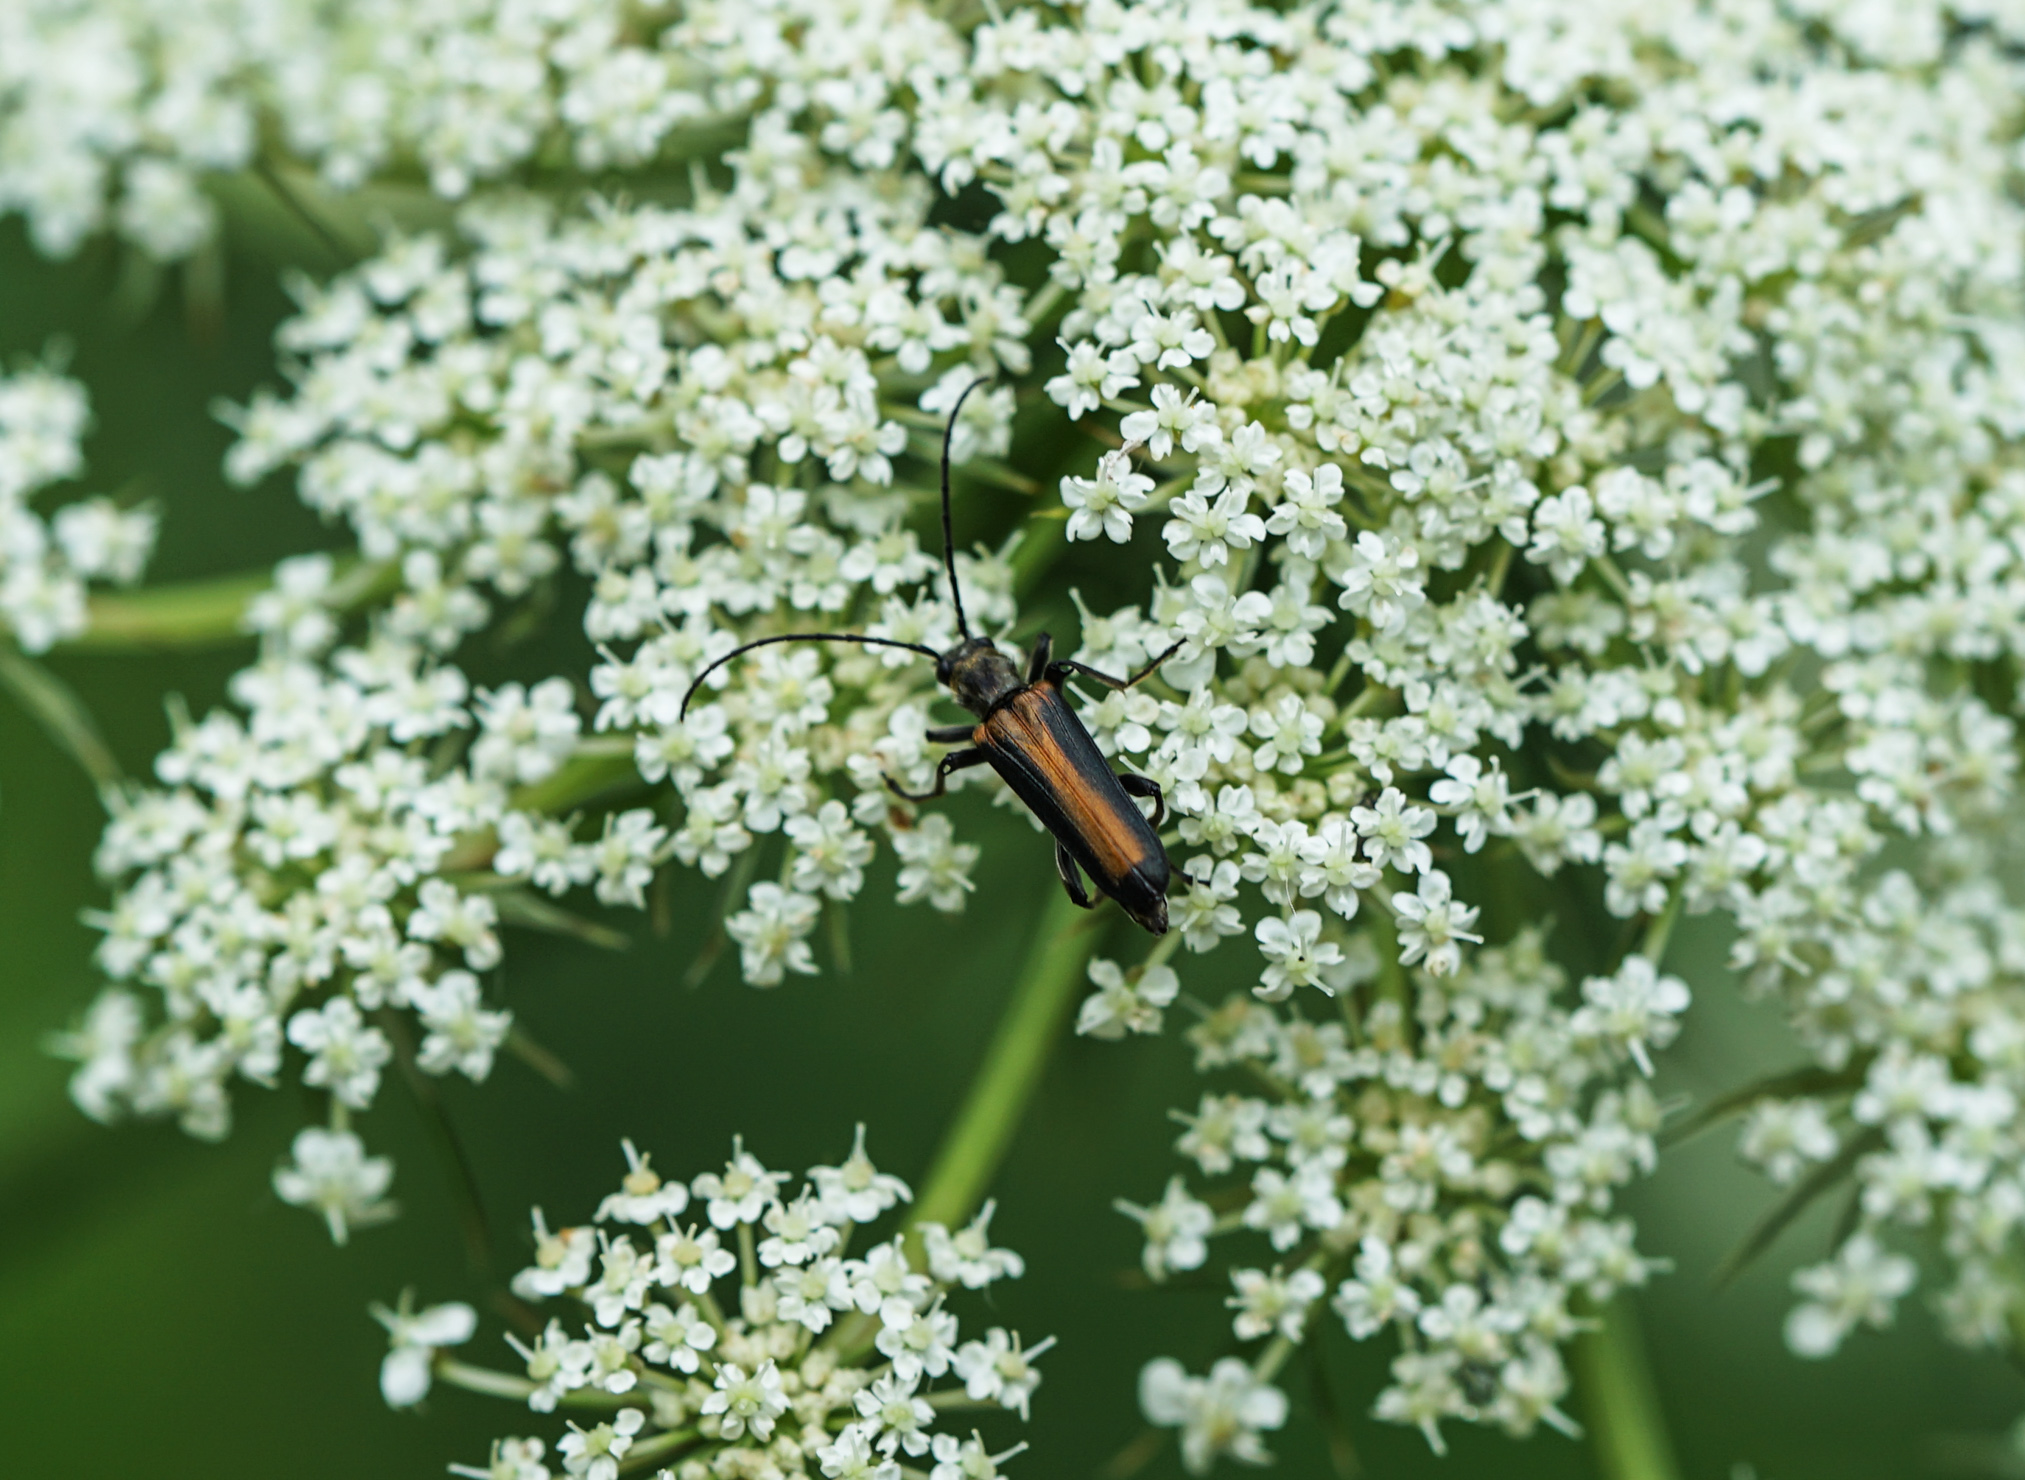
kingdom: Animalia
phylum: Arthropoda
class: Insecta
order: Coleoptera
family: Oedemeridae
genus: Anogcodes
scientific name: Anogcodes ustulatus
